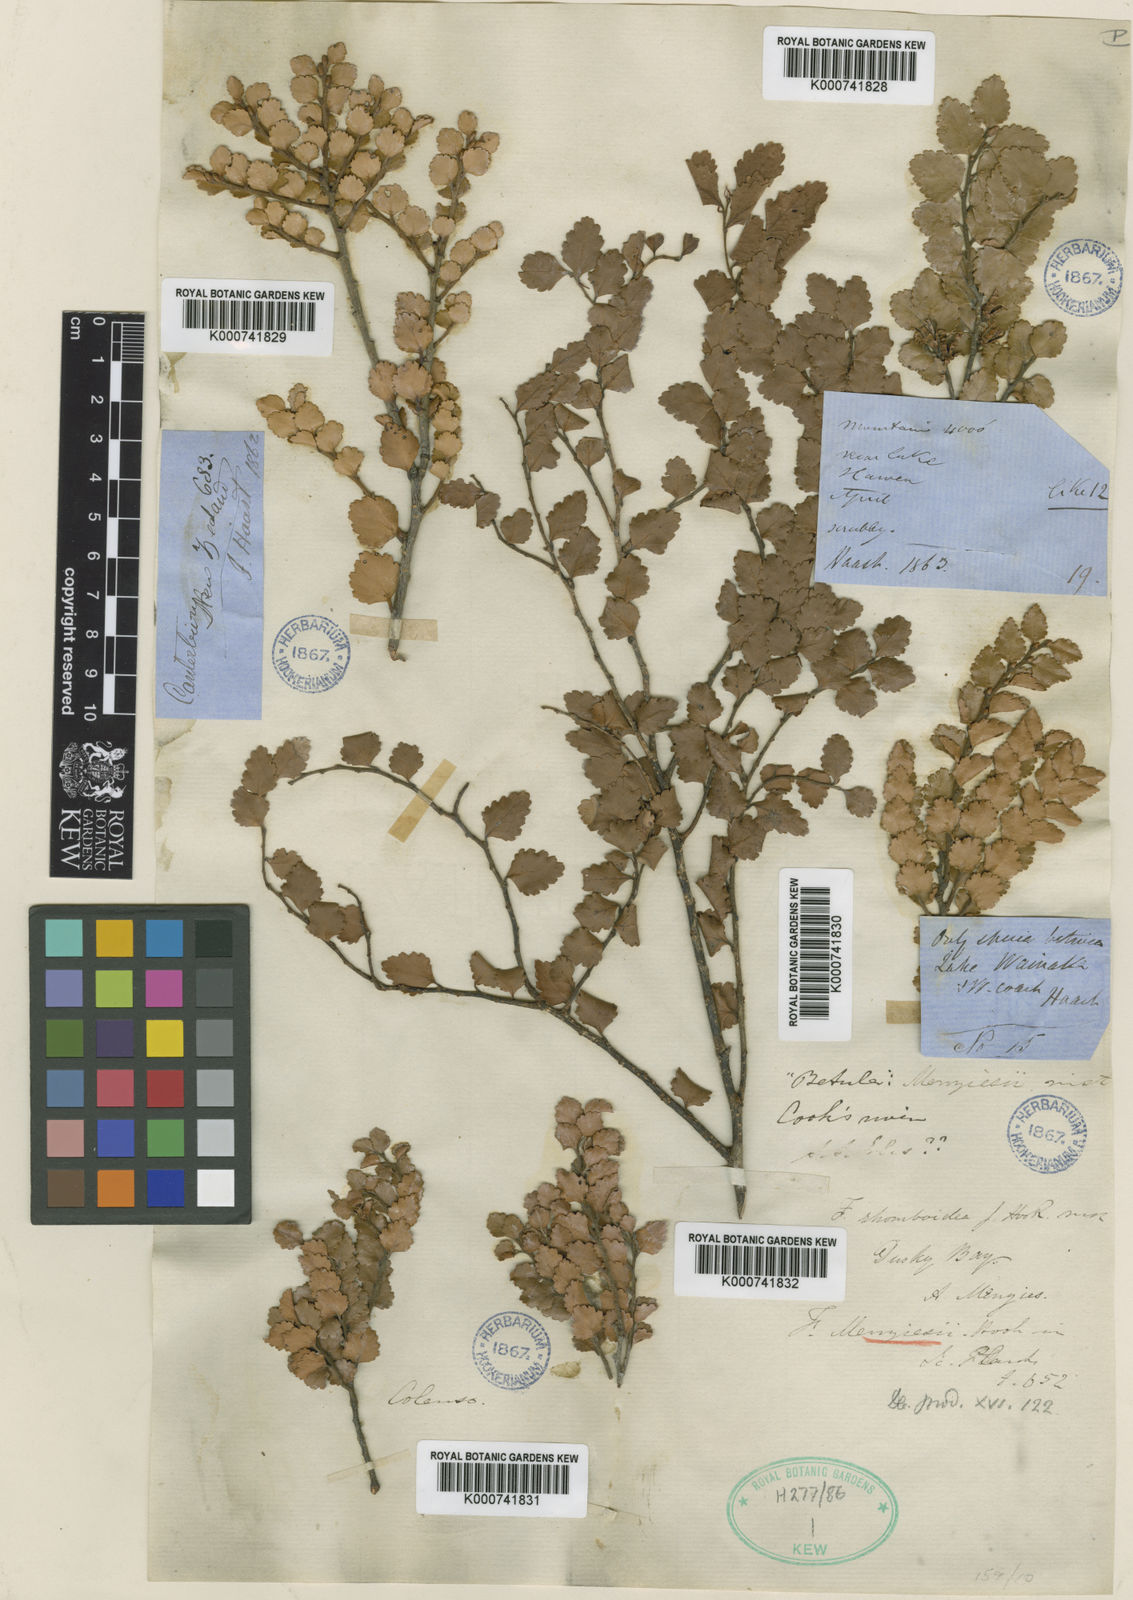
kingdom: Plantae
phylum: Tracheophyta
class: Magnoliopsida
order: Fagales
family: Nothofagaceae
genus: Nothofagus
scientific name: Nothofagus menziesii
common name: Silver beech
